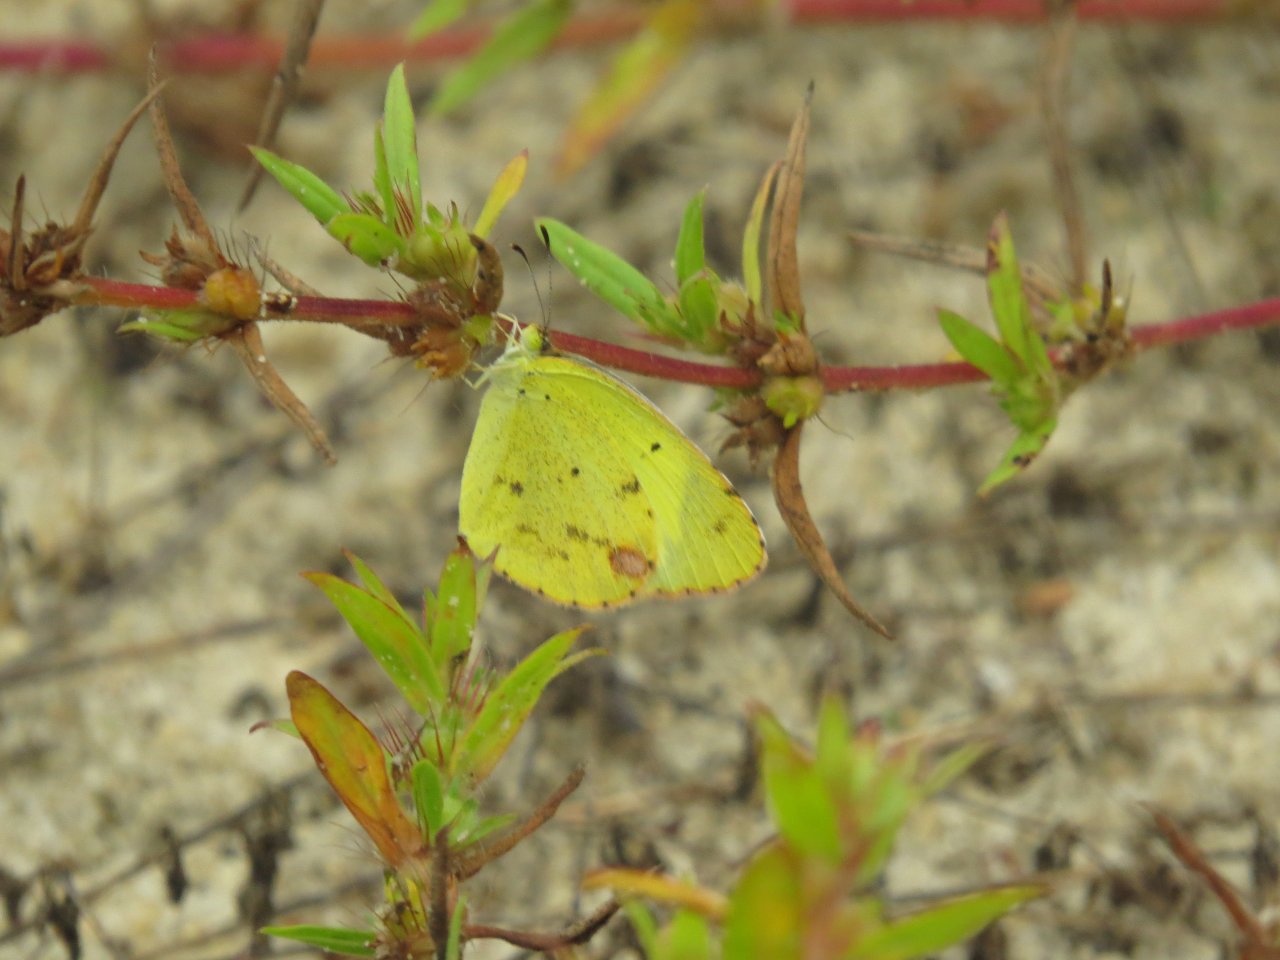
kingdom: Animalia
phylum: Arthropoda
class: Insecta
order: Lepidoptera
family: Pieridae
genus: Pyrisitia
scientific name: Pyrisitia lisa
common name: Little Yellow
